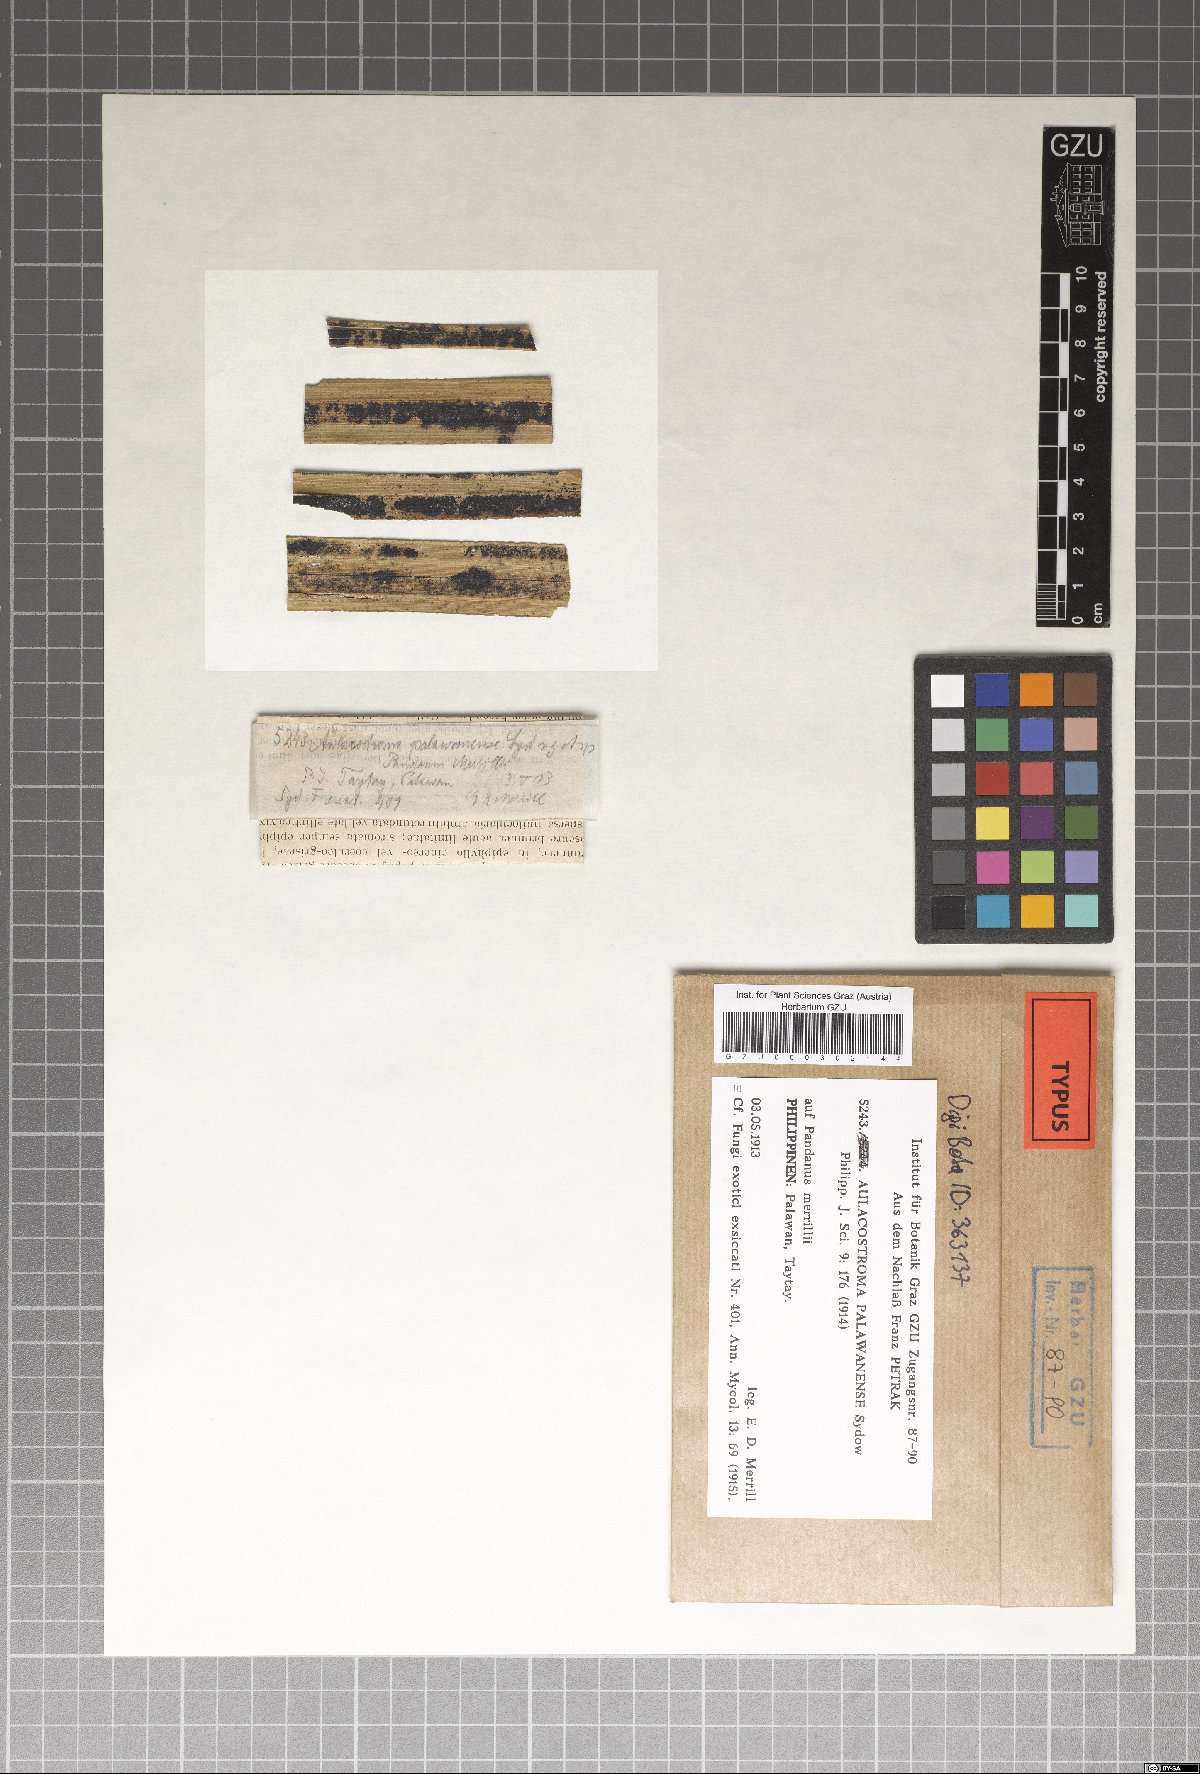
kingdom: Fungi
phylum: Ascomycota
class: Dothideomycetes
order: Asterinales
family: Parmulariaceae
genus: Aulacostroma
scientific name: Aulacostroma palawanense
